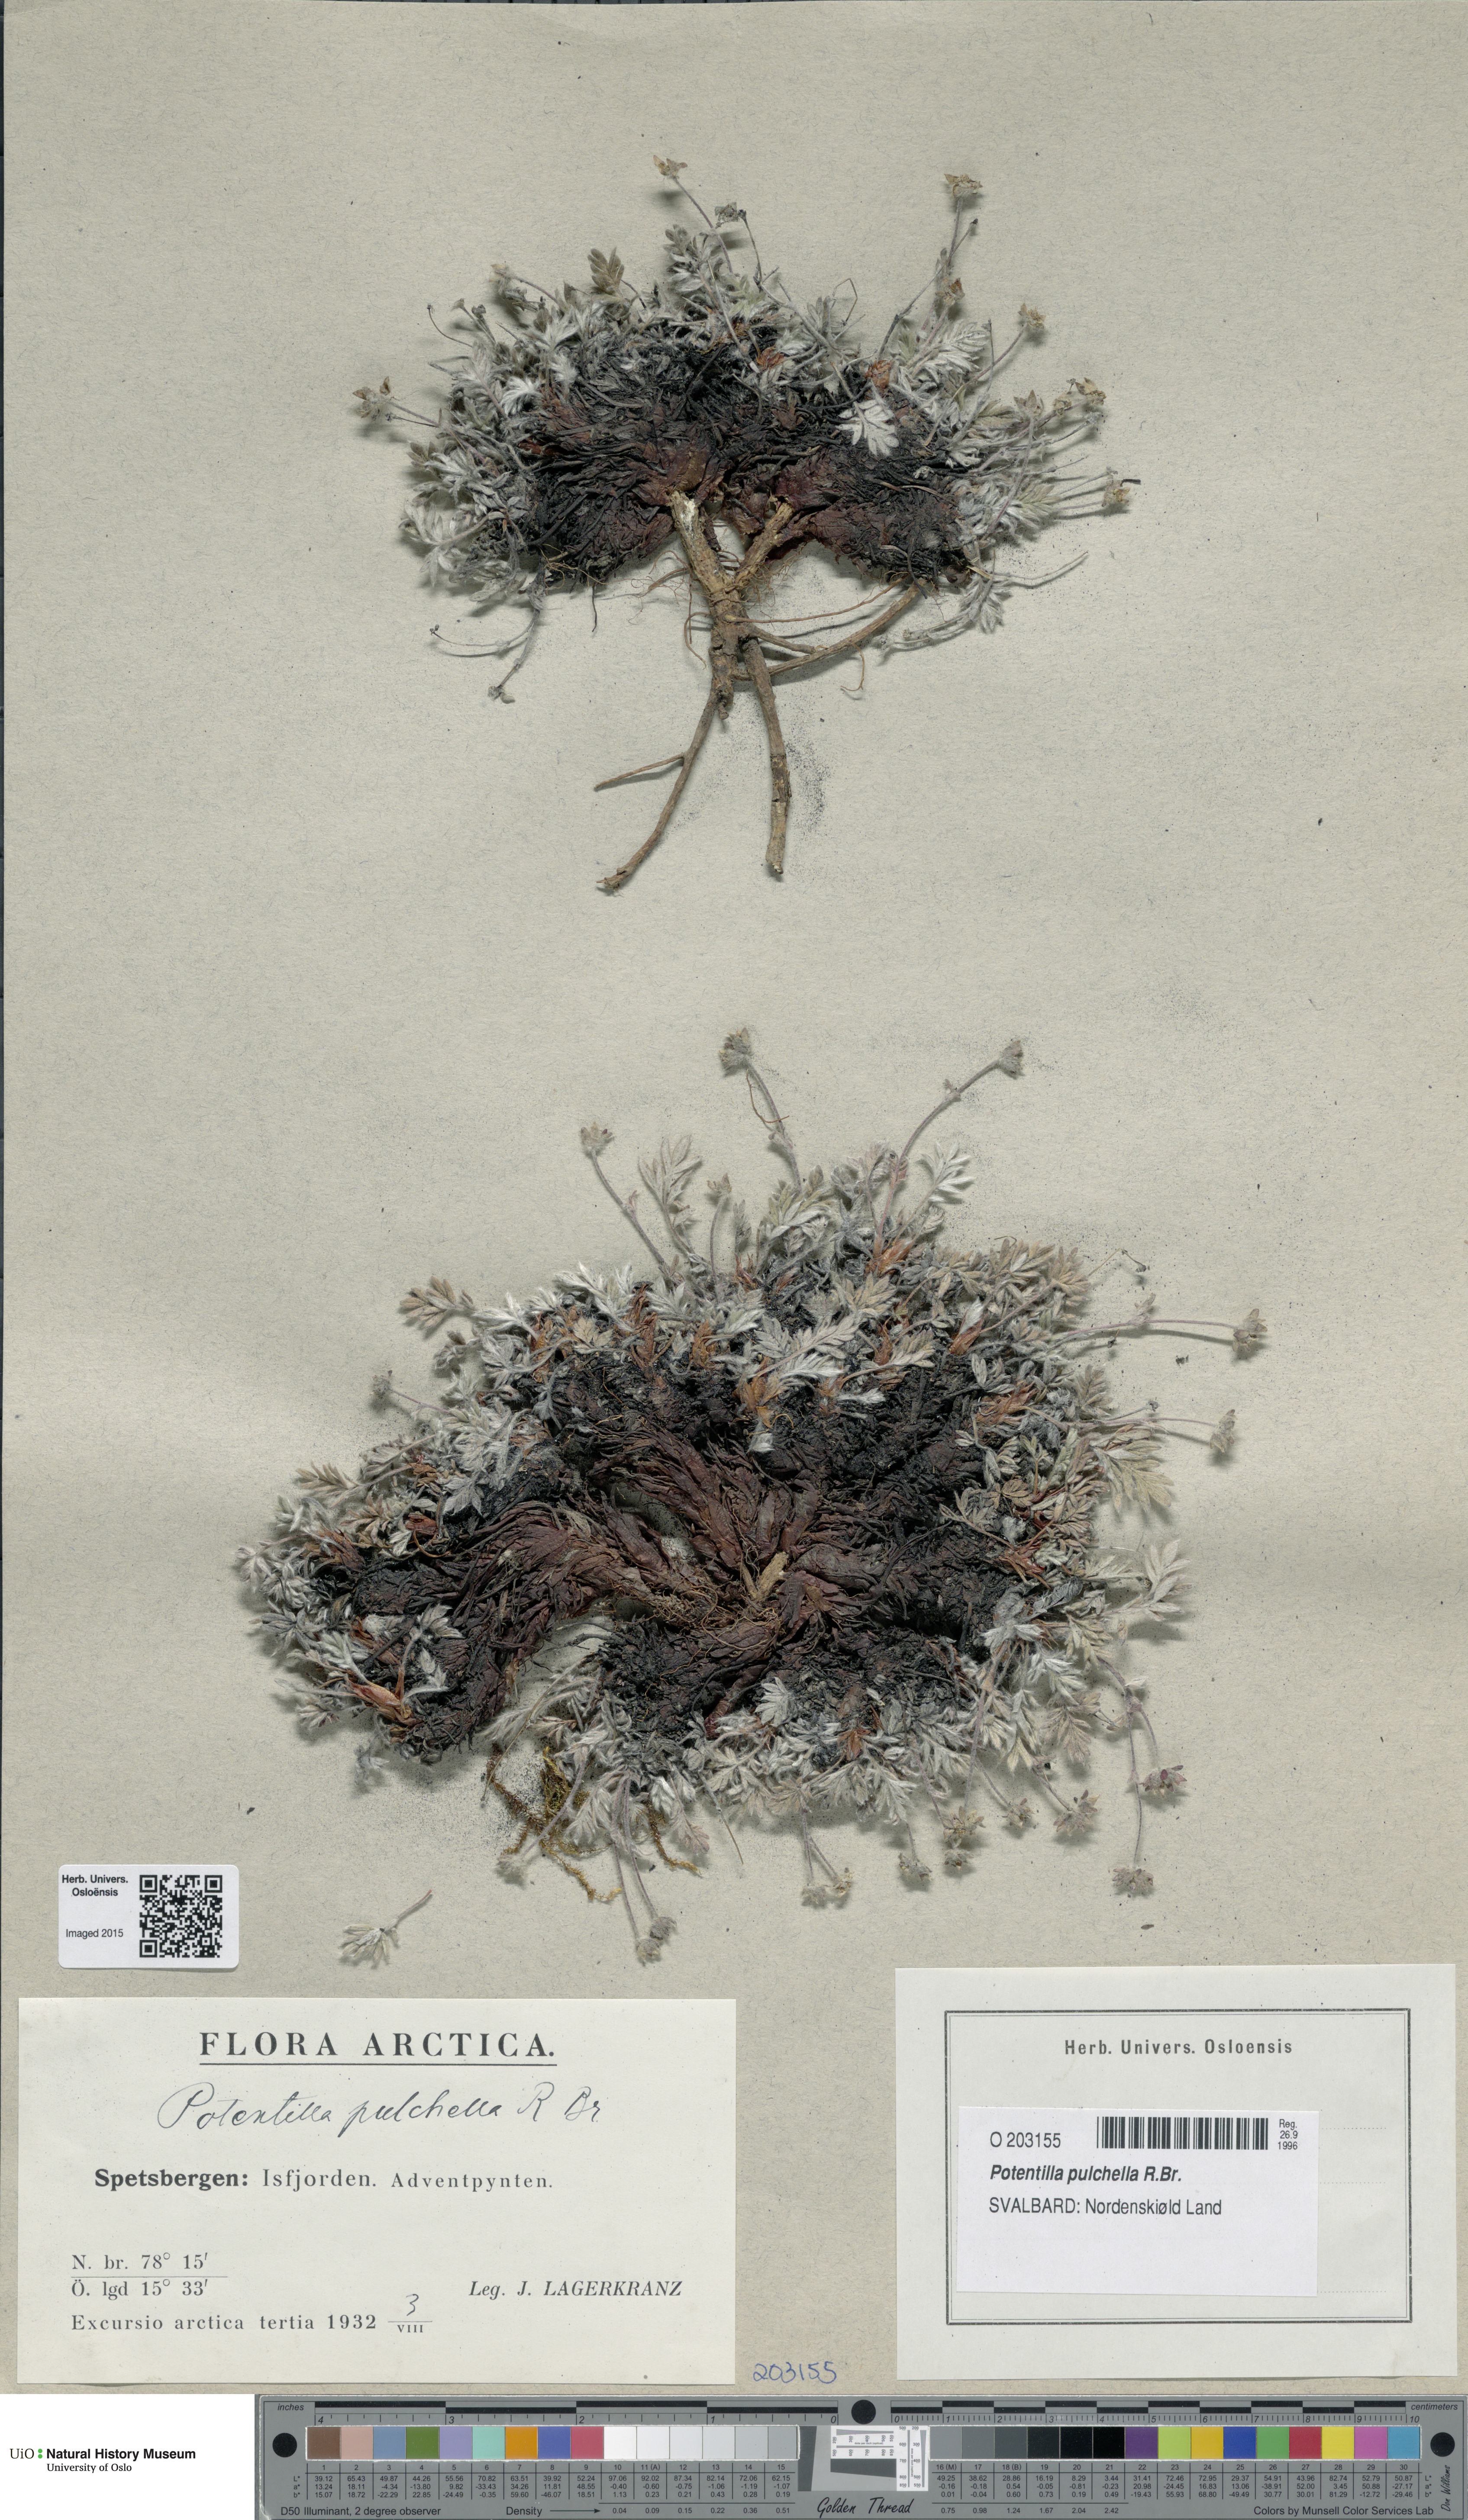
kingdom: Plantae
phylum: Tracheophyta
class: Magnoliopsida
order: Rosales
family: Rosaceae
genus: Potentilla
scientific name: Potentilla pulchella
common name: Pretty cinquefoil
